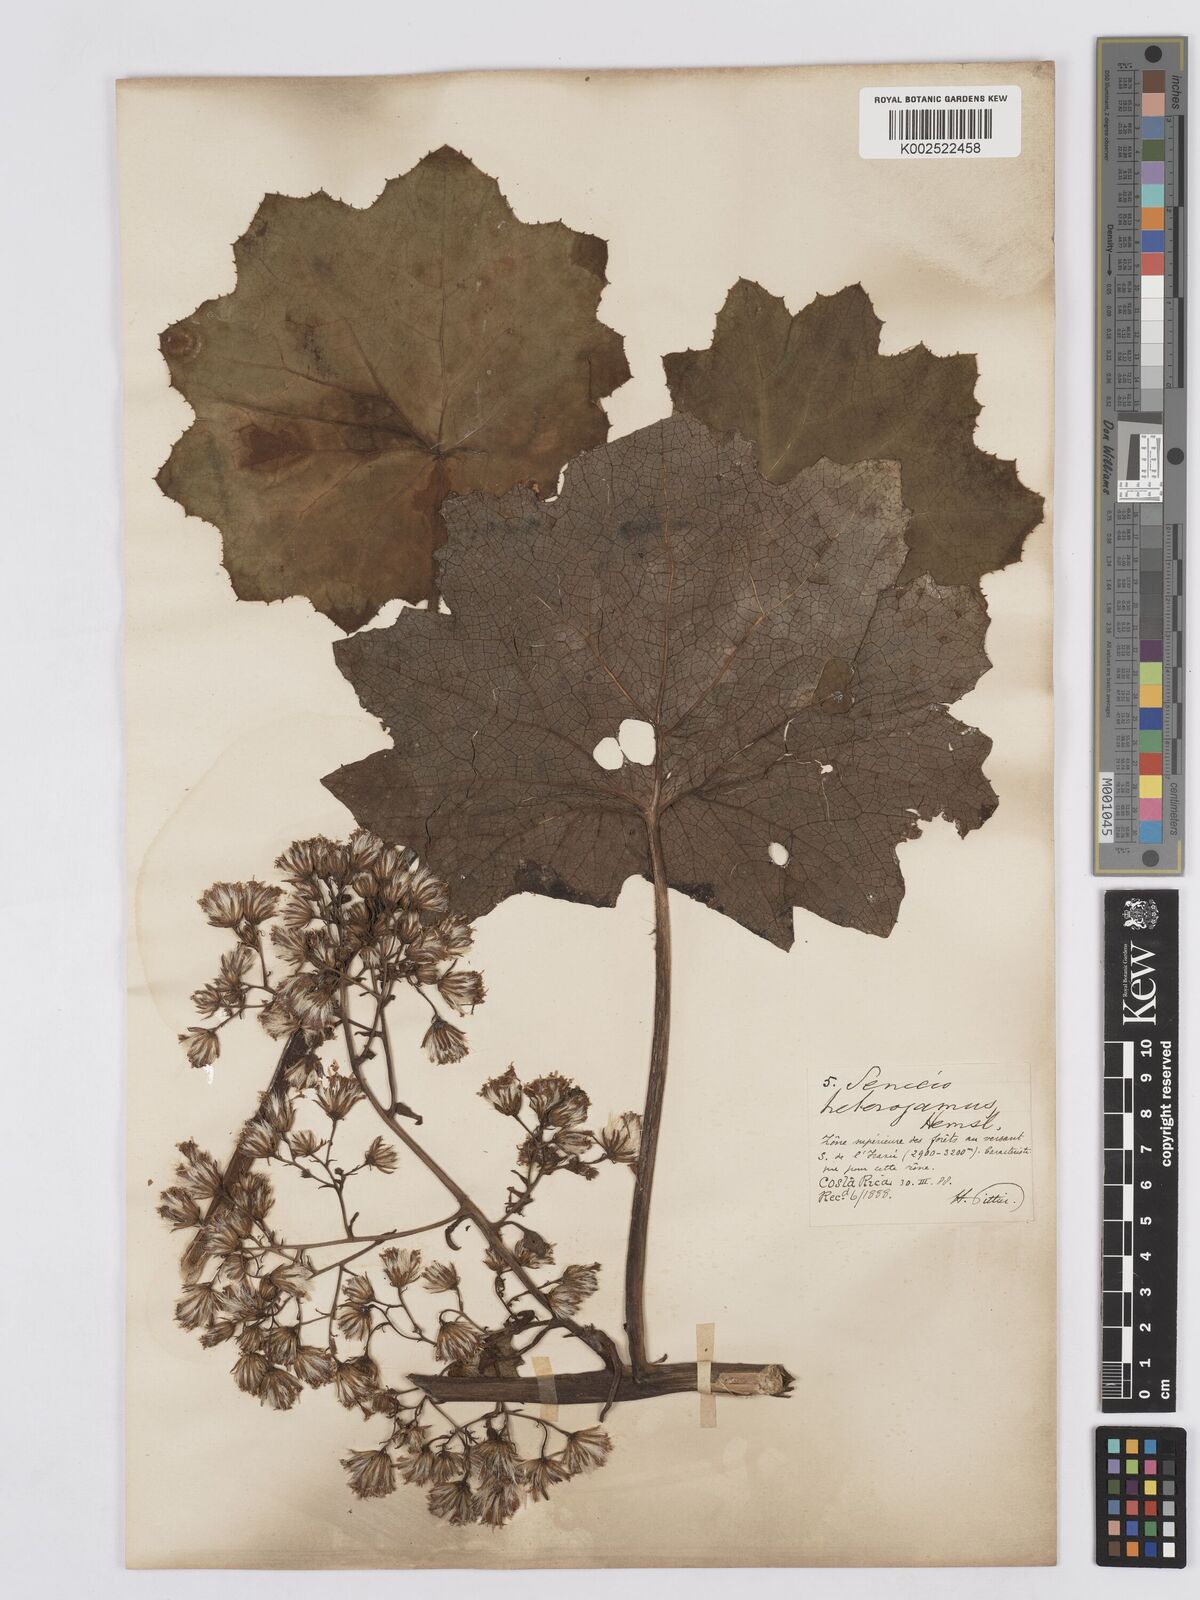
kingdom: Plantae
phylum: Tracheophyta
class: Magnoliopsida
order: Asterales
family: Asteraceae
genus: Roldana
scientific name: Roldana heterogama
